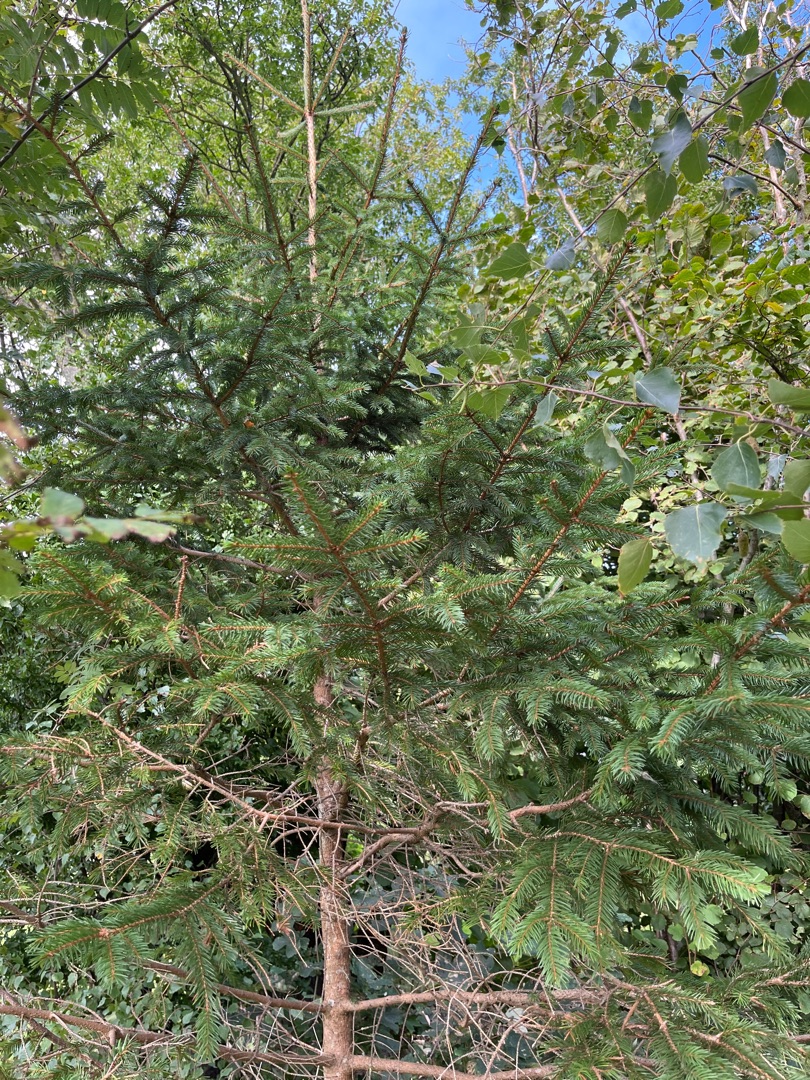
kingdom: Plantae
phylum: Tracheophyta
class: Pinopsida
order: Pinales
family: Pinaceae
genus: Picea
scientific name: Picea abies
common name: Rød-gran
